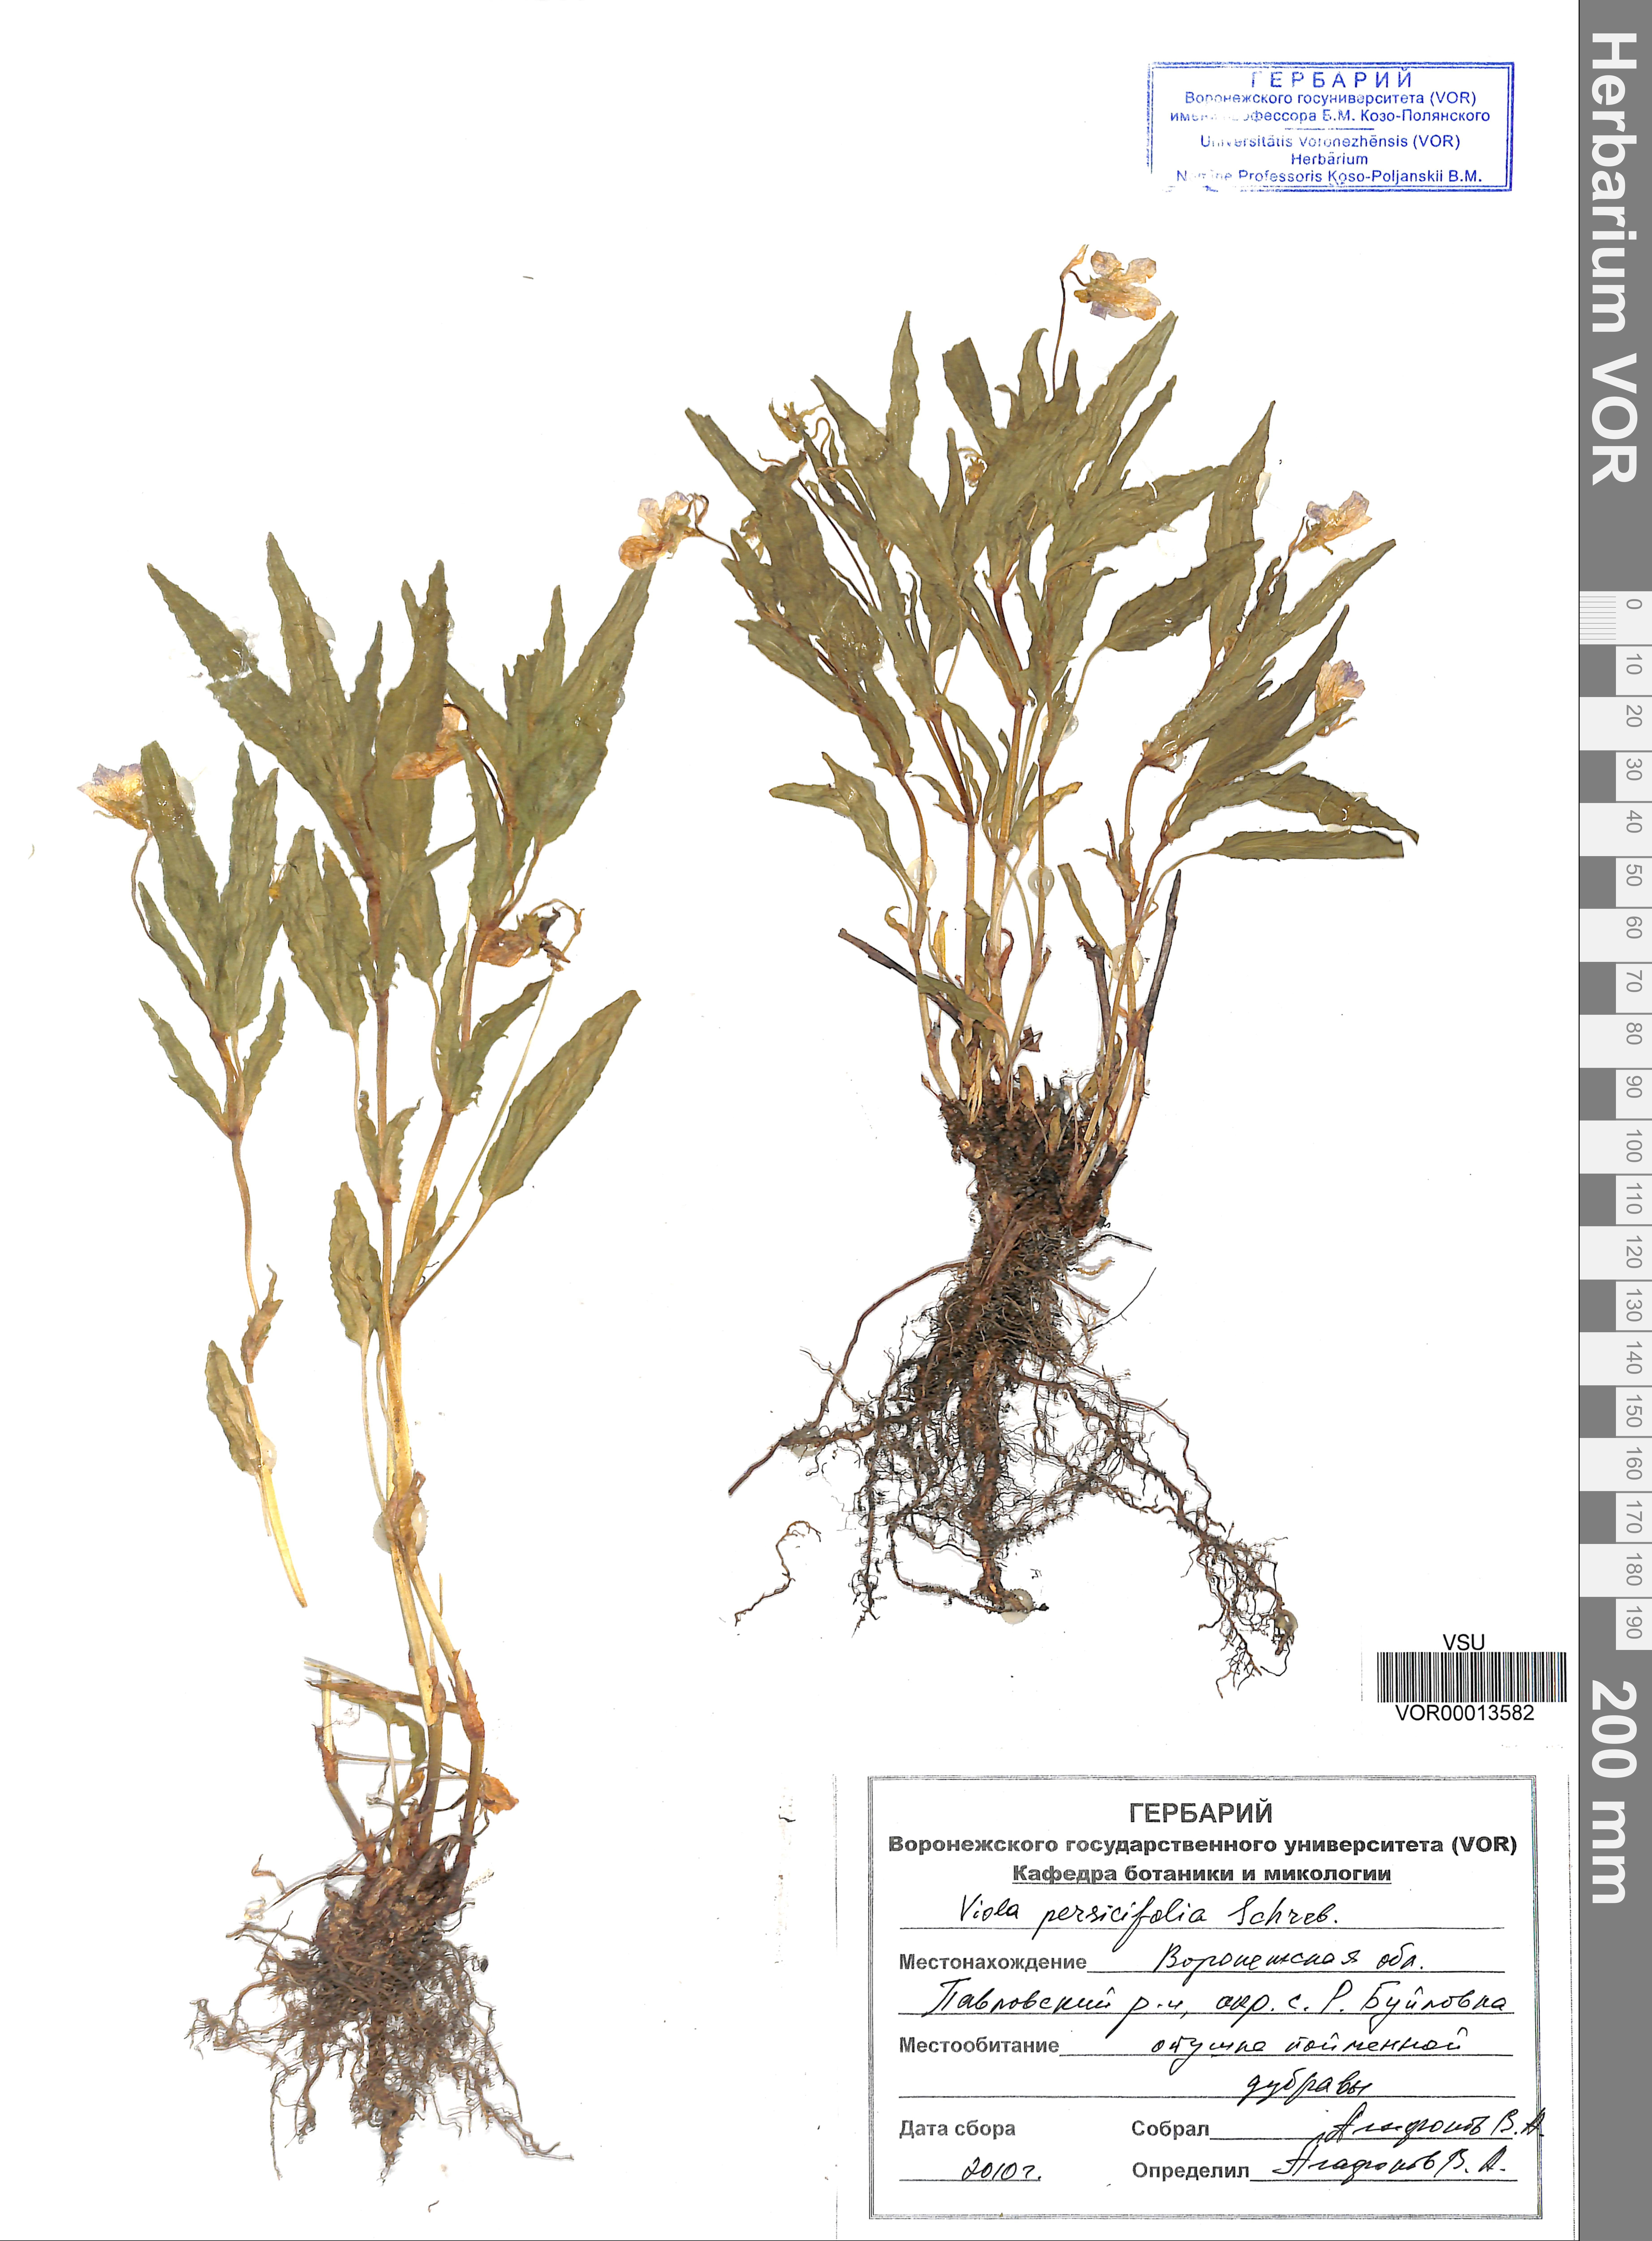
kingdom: Plantae
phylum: Tracheophyta
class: Magnoliopsida
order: Malpighiales
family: Violaceae
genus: Viola
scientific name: Viola stagnina
